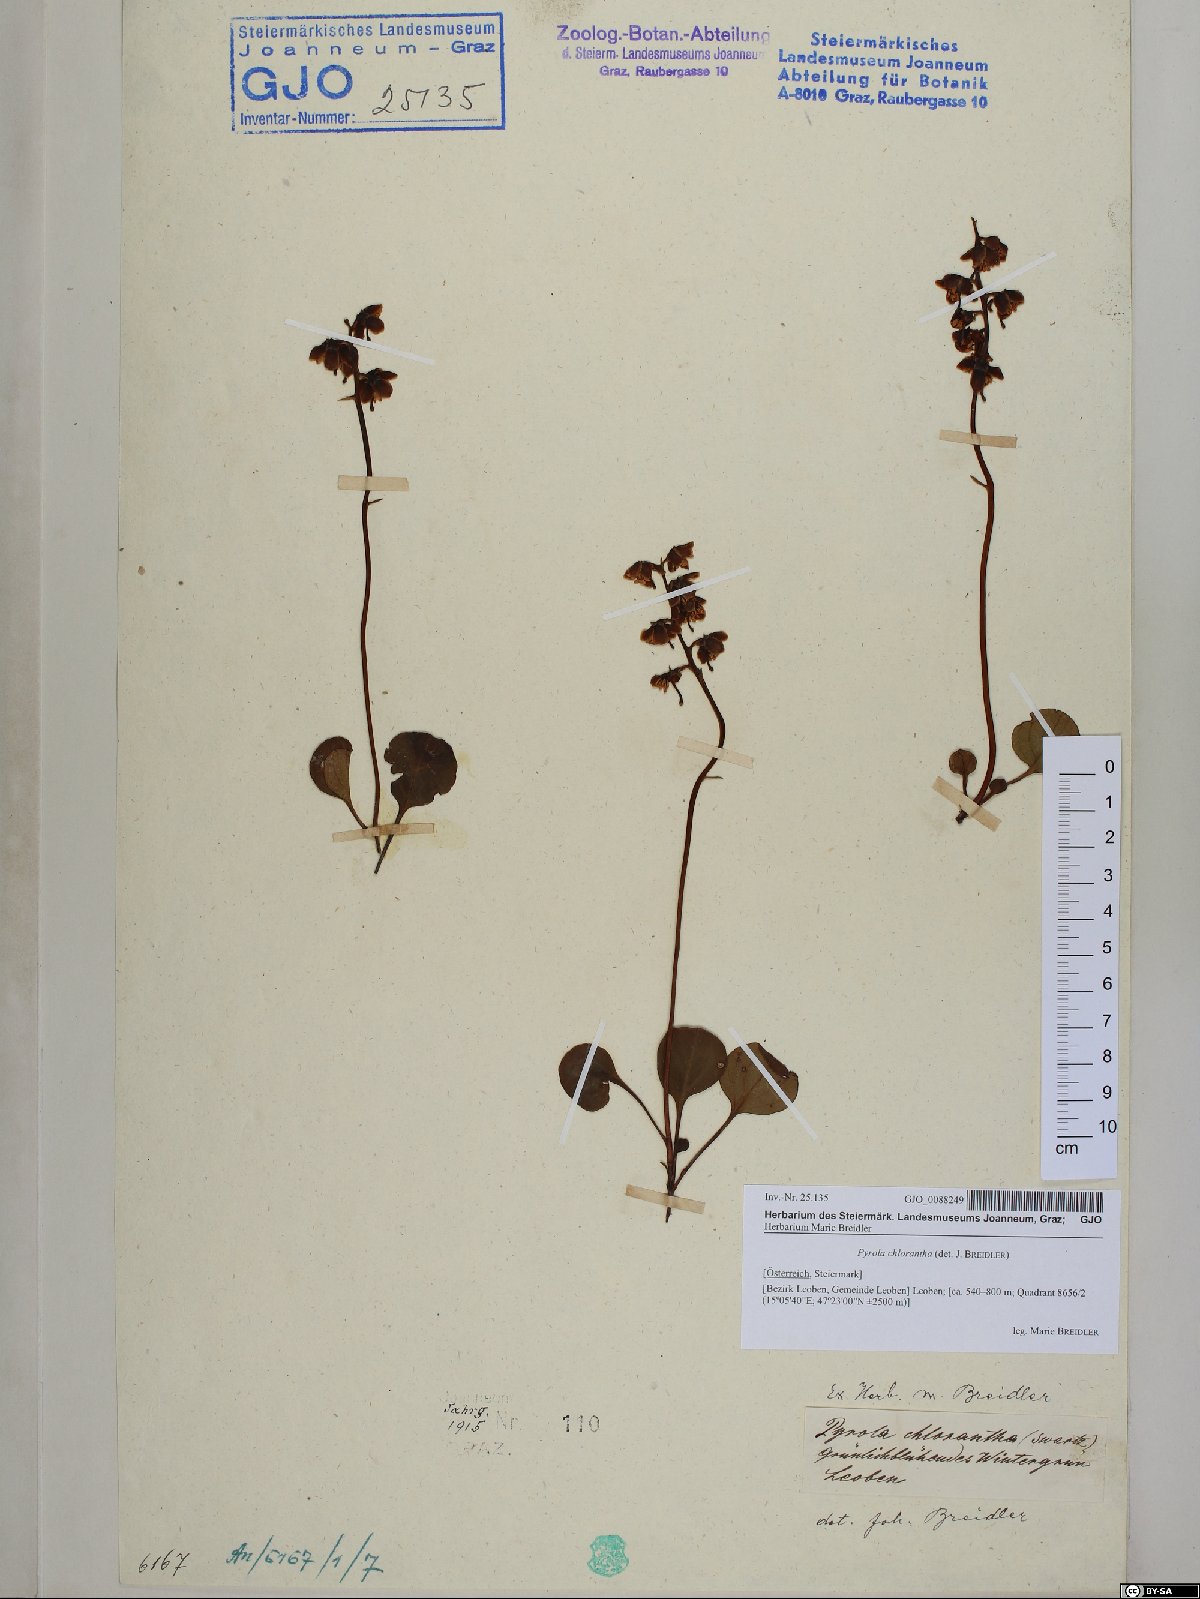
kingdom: Plantae
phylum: Tracheophyta
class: Magnoliopsida
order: Ericales
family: Ericaceae
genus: Pyrola
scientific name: Pyrola chlorantha
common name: Green wintergreen
